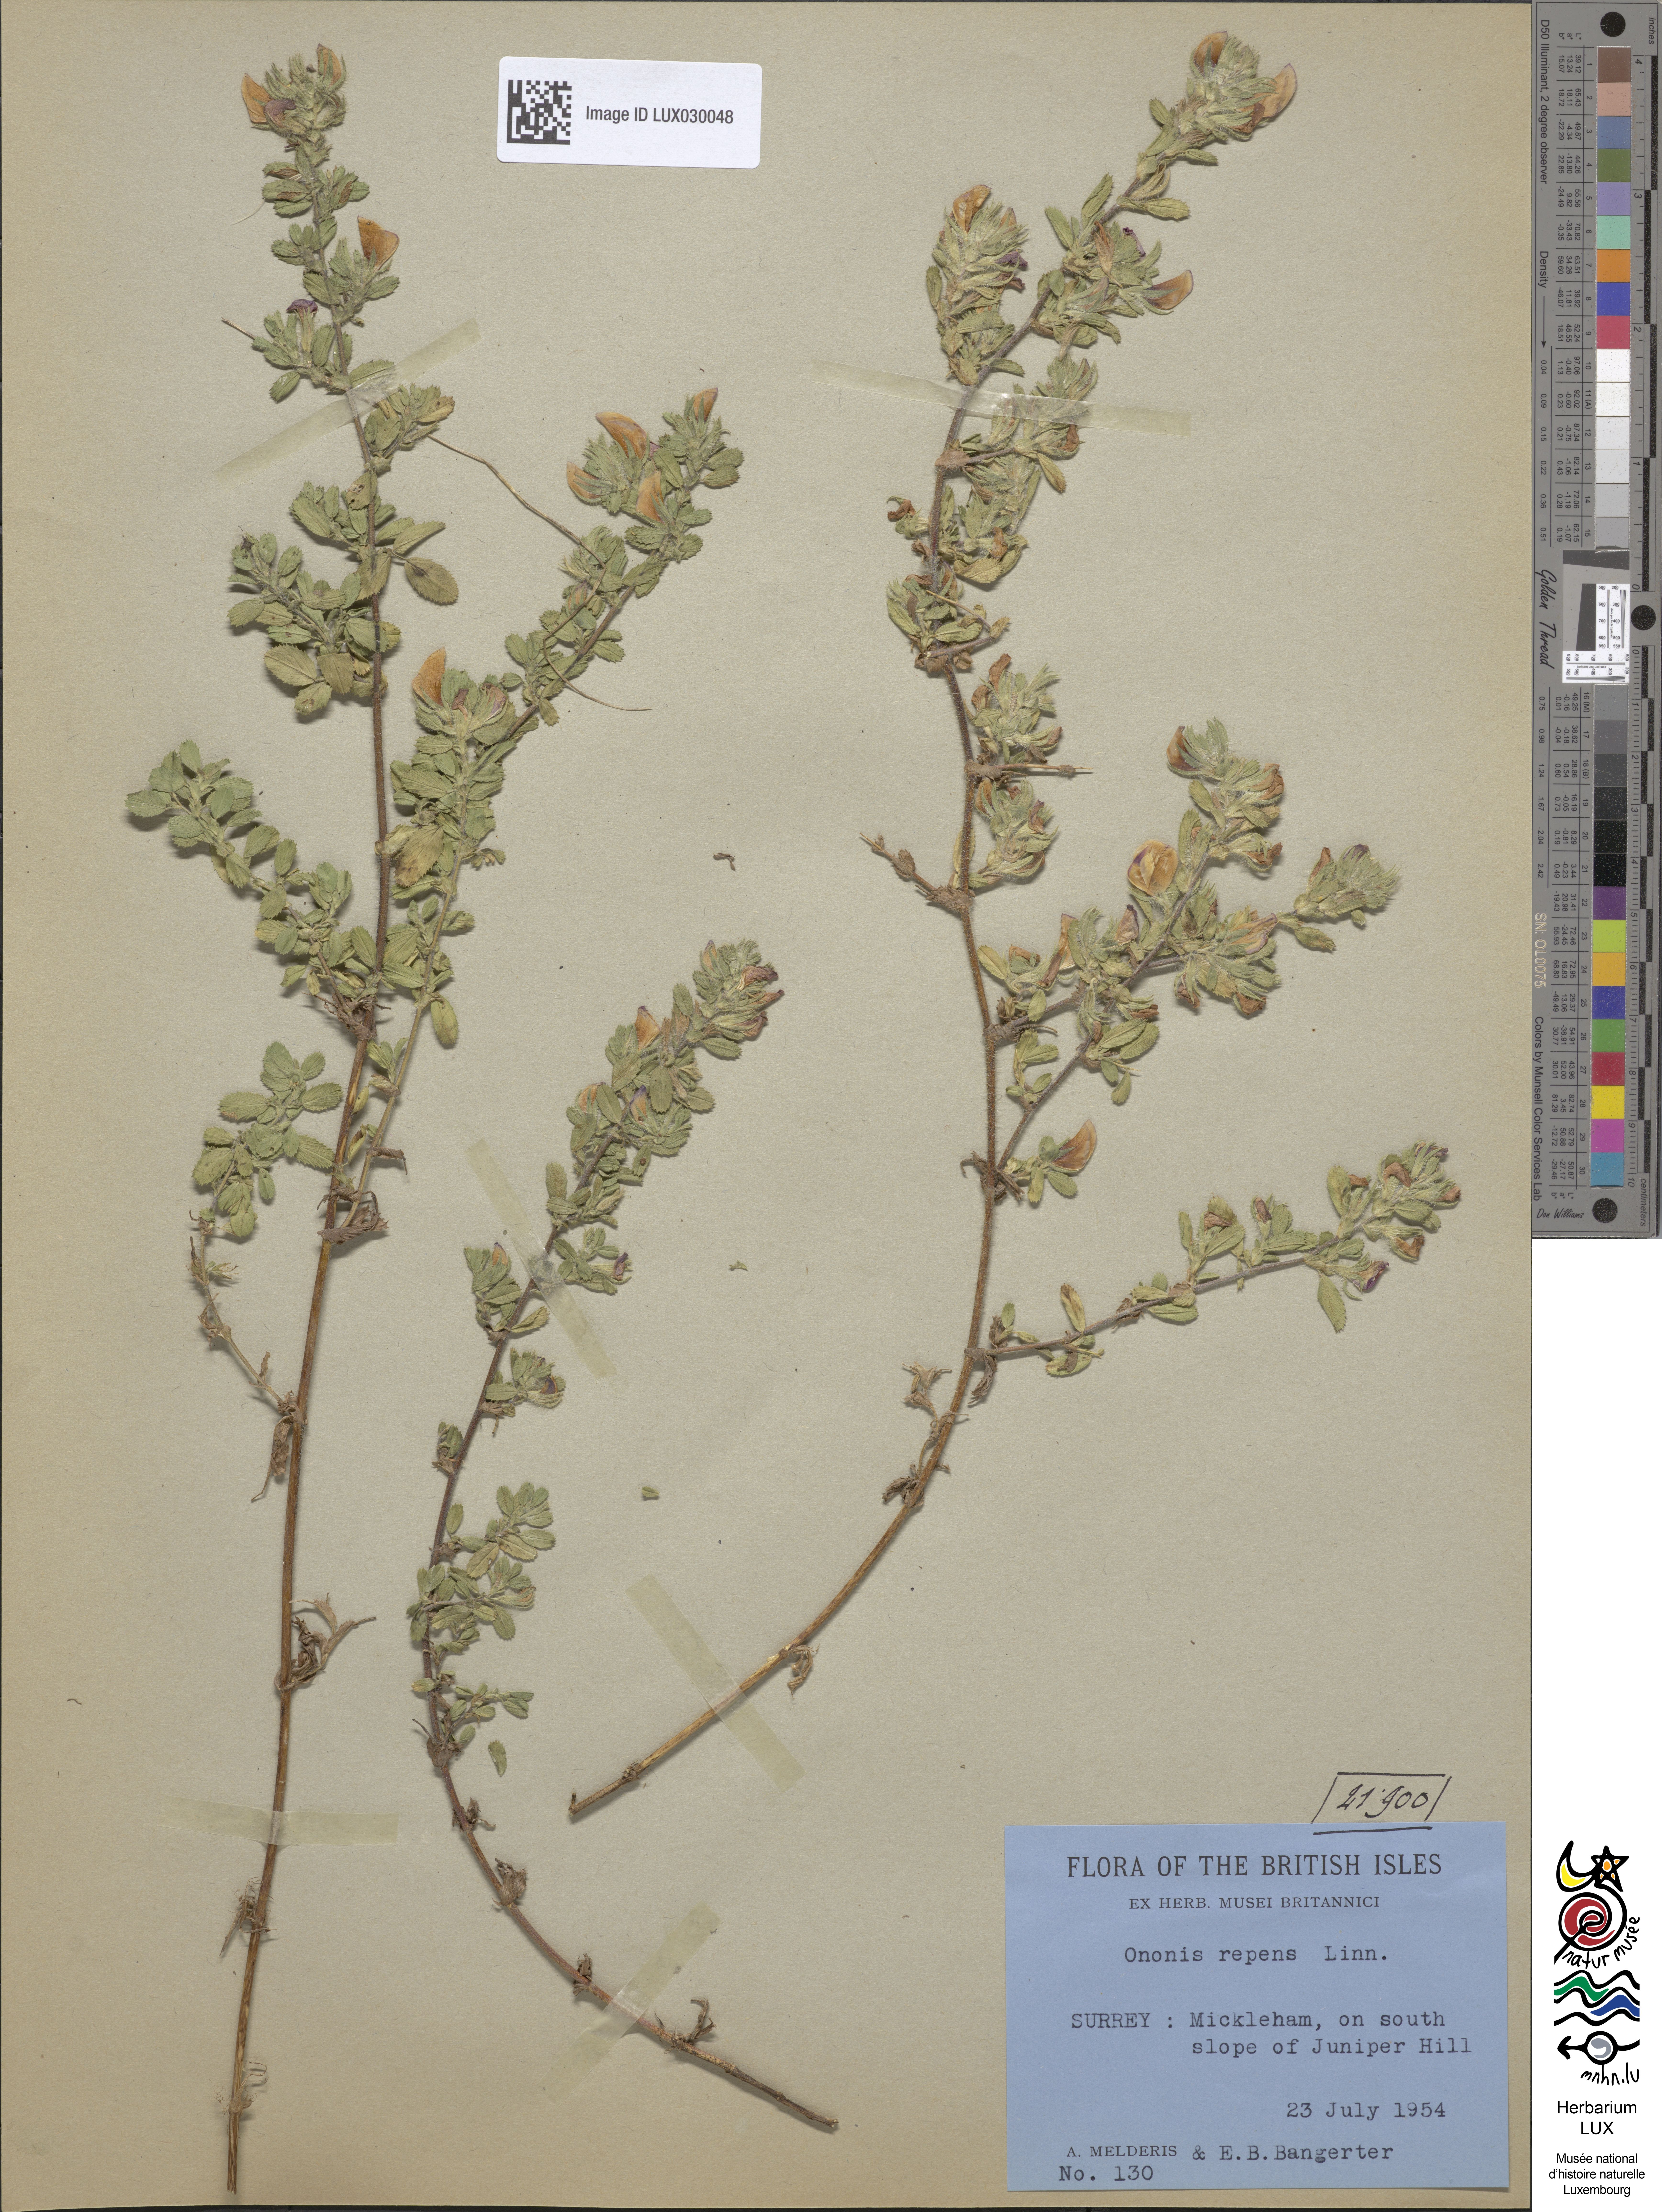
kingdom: Plantae
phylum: Tracheophyta
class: Magnoliopsida
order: Fabales
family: Fabaceae
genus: Ononis
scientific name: Ononis spinosa
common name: Spiny restharrow
